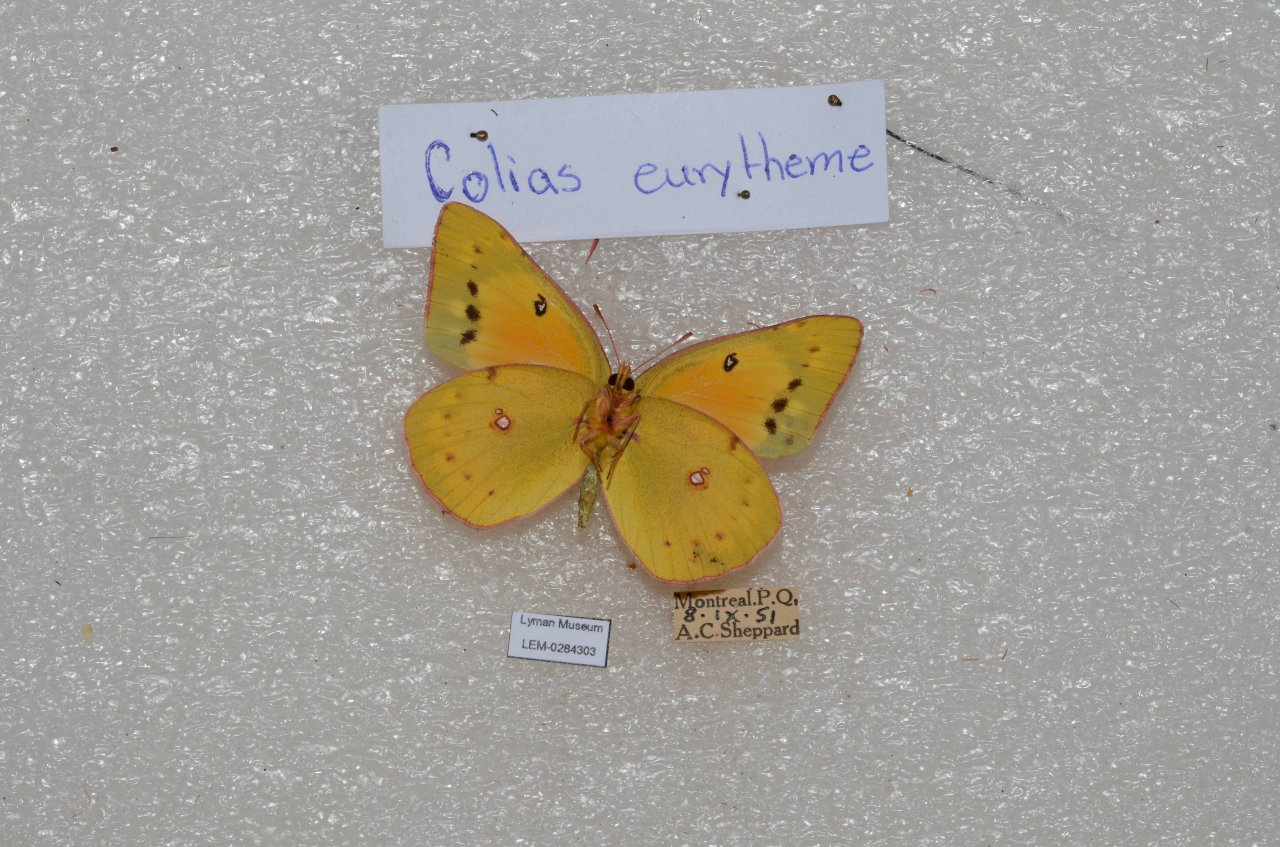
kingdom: Animalia
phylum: Arthropoda
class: Insecta
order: Lepidoptera
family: Pieridae
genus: Colias
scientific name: Colias eurytheme
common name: Orange Sulphur
